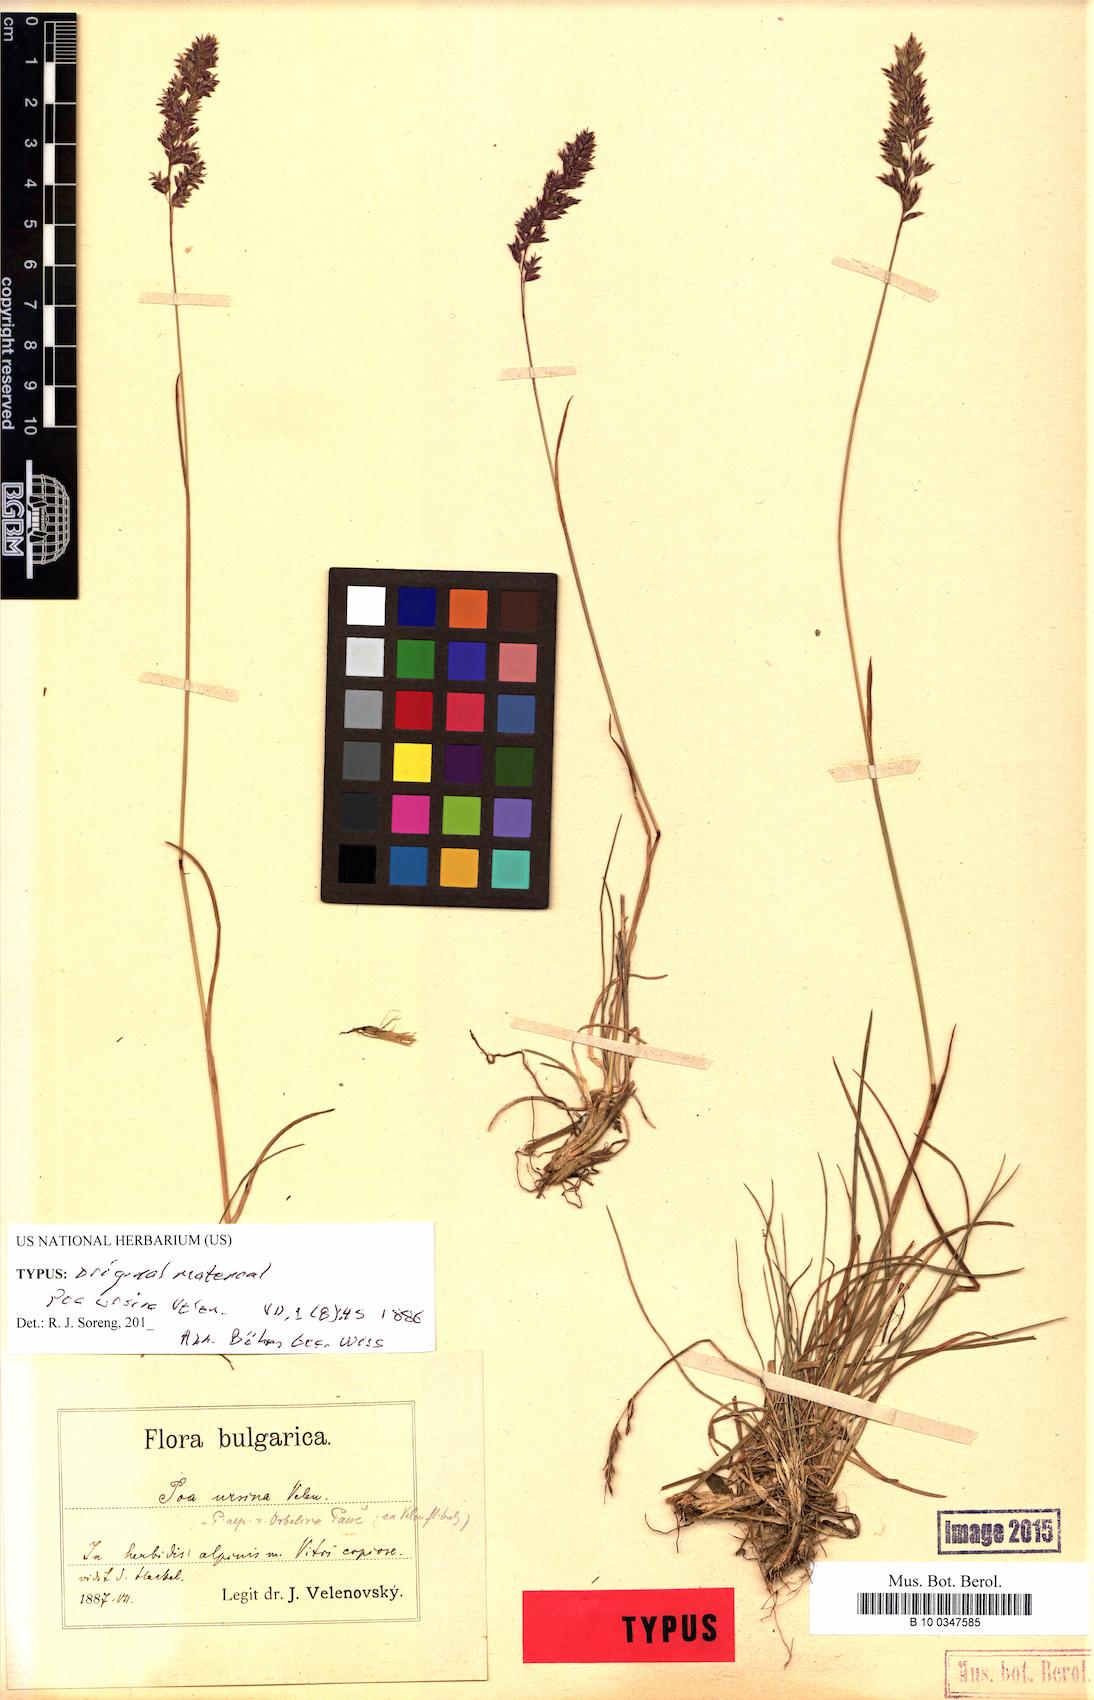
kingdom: Plantae
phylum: Tracheophyta
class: Liliopsida
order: Poales
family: Poaceae
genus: Poa
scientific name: Poa ursina
